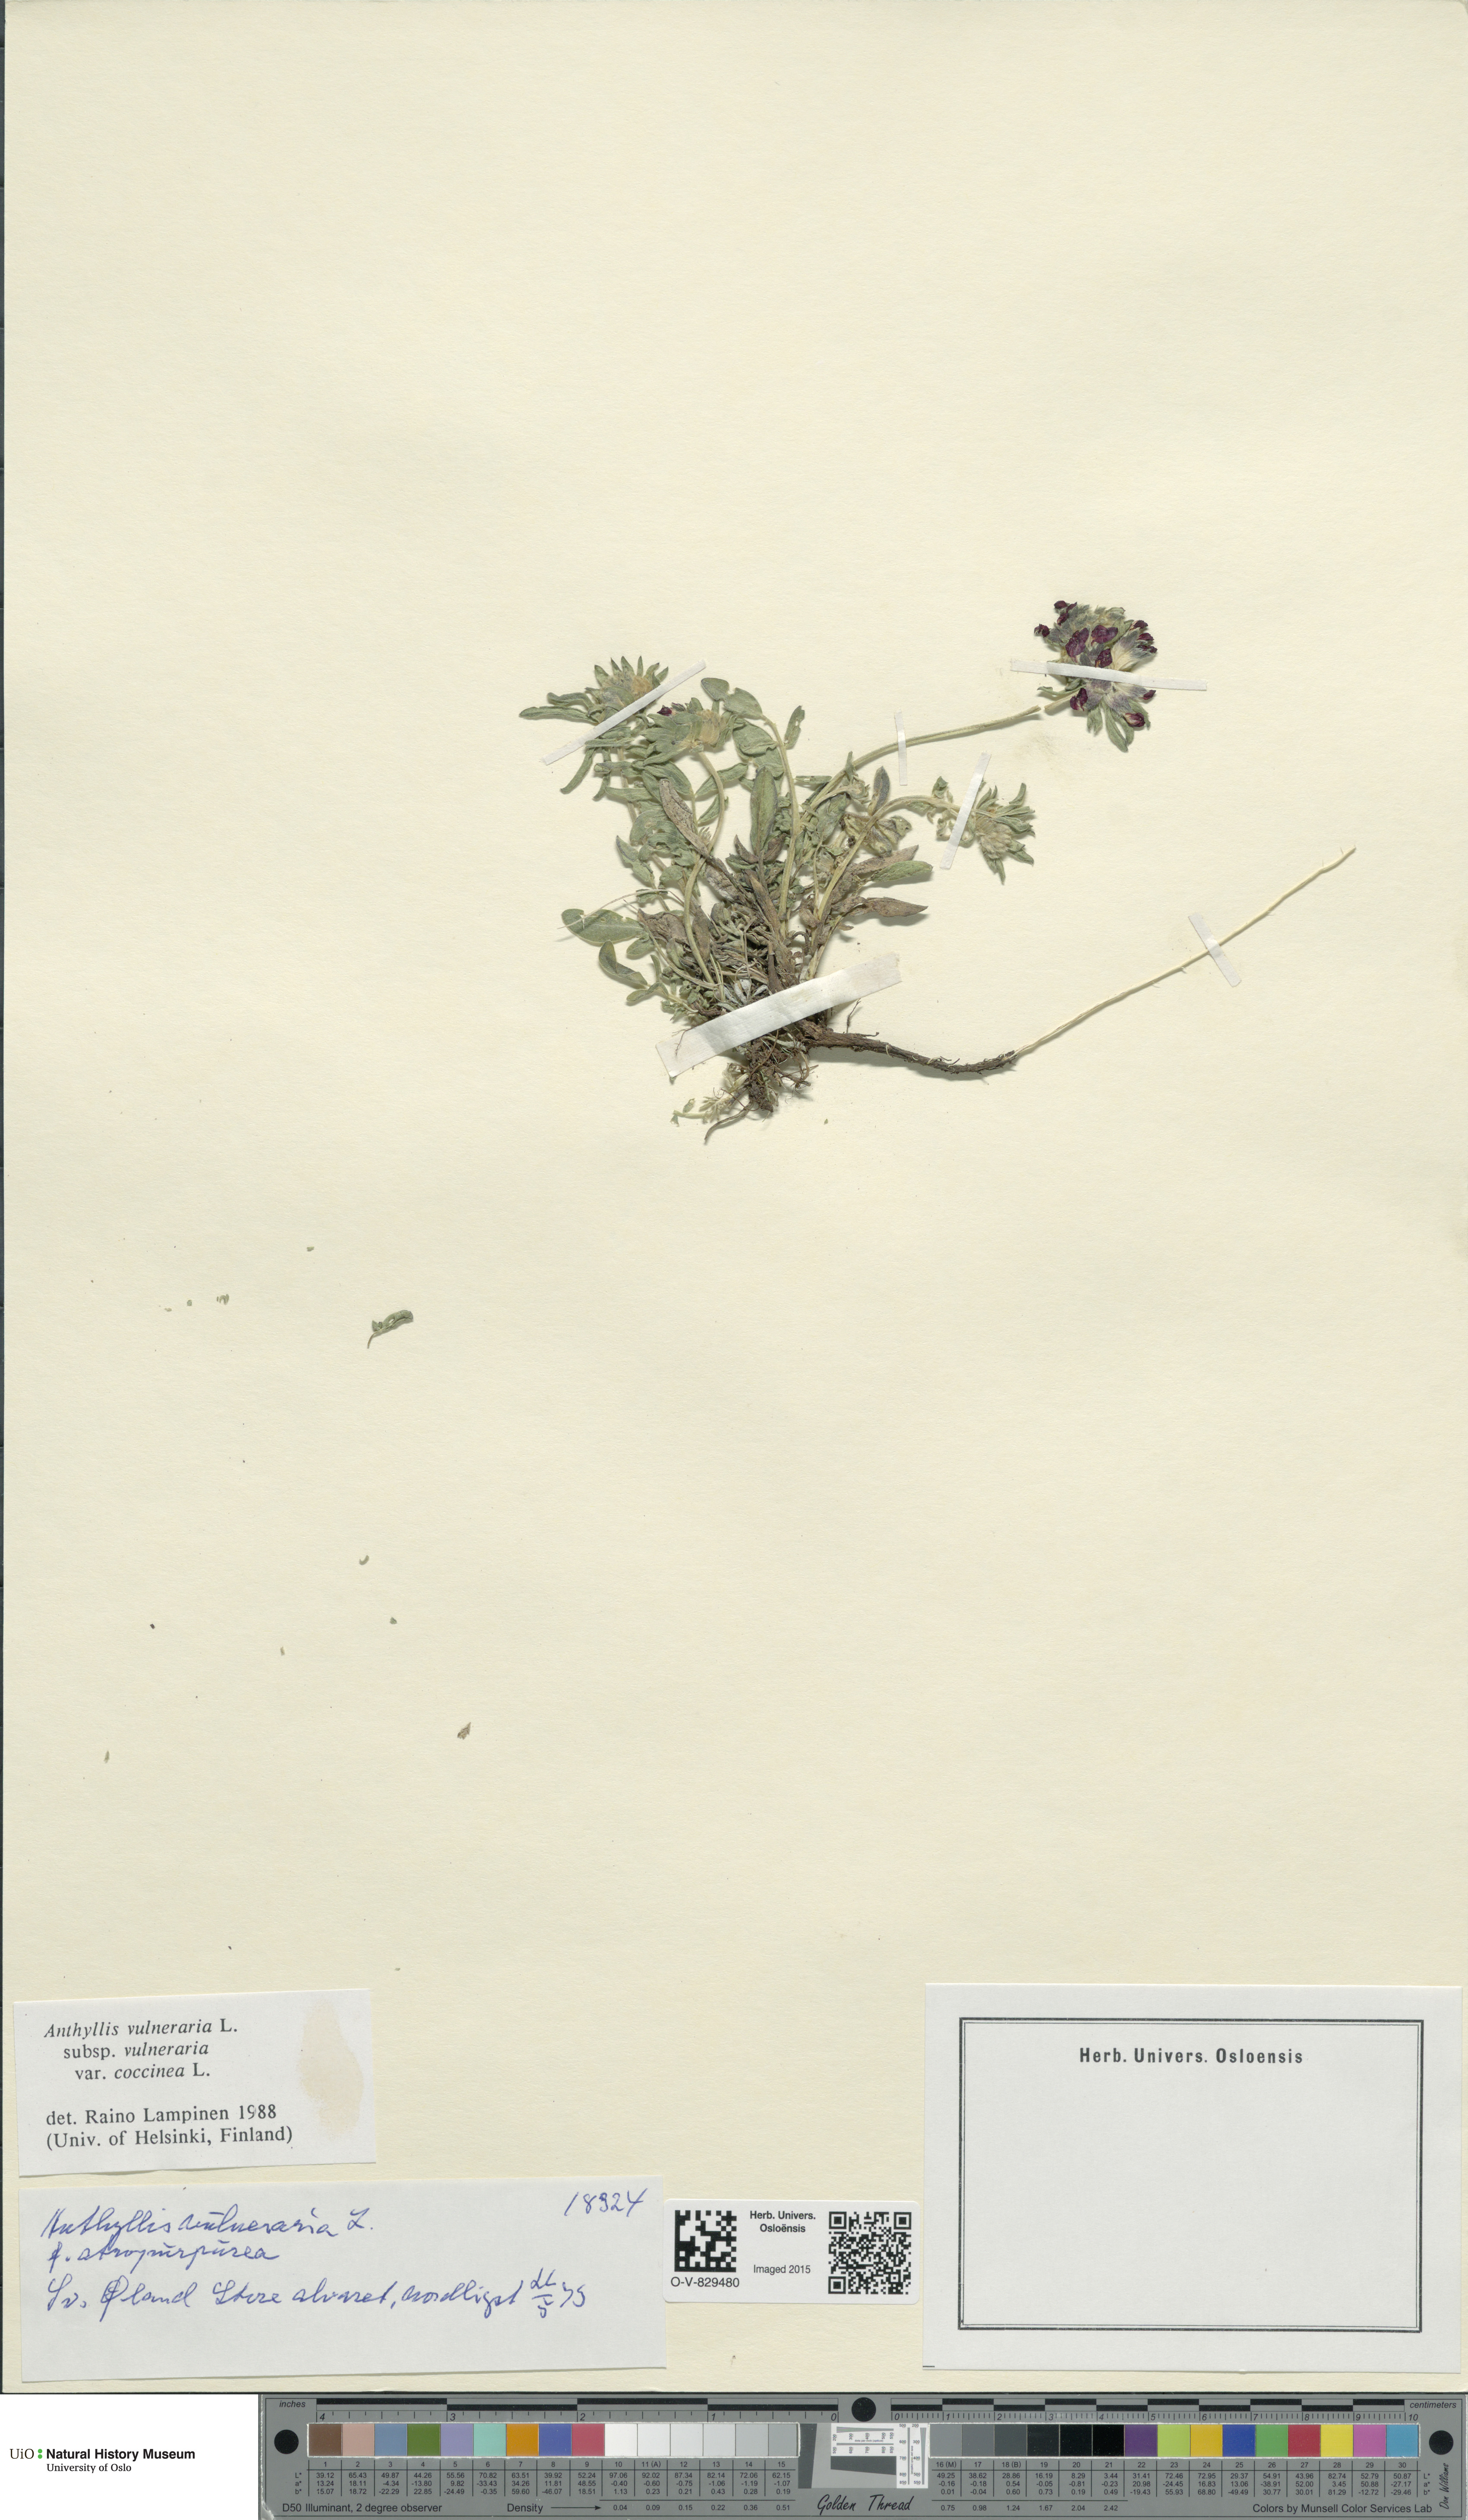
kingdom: Plantae
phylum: Tracheophyta
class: Magnoliopsida
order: Fabales
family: Fabaceae
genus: Anthyllis
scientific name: Anthyllis vulneraria
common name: Kidney vetch
